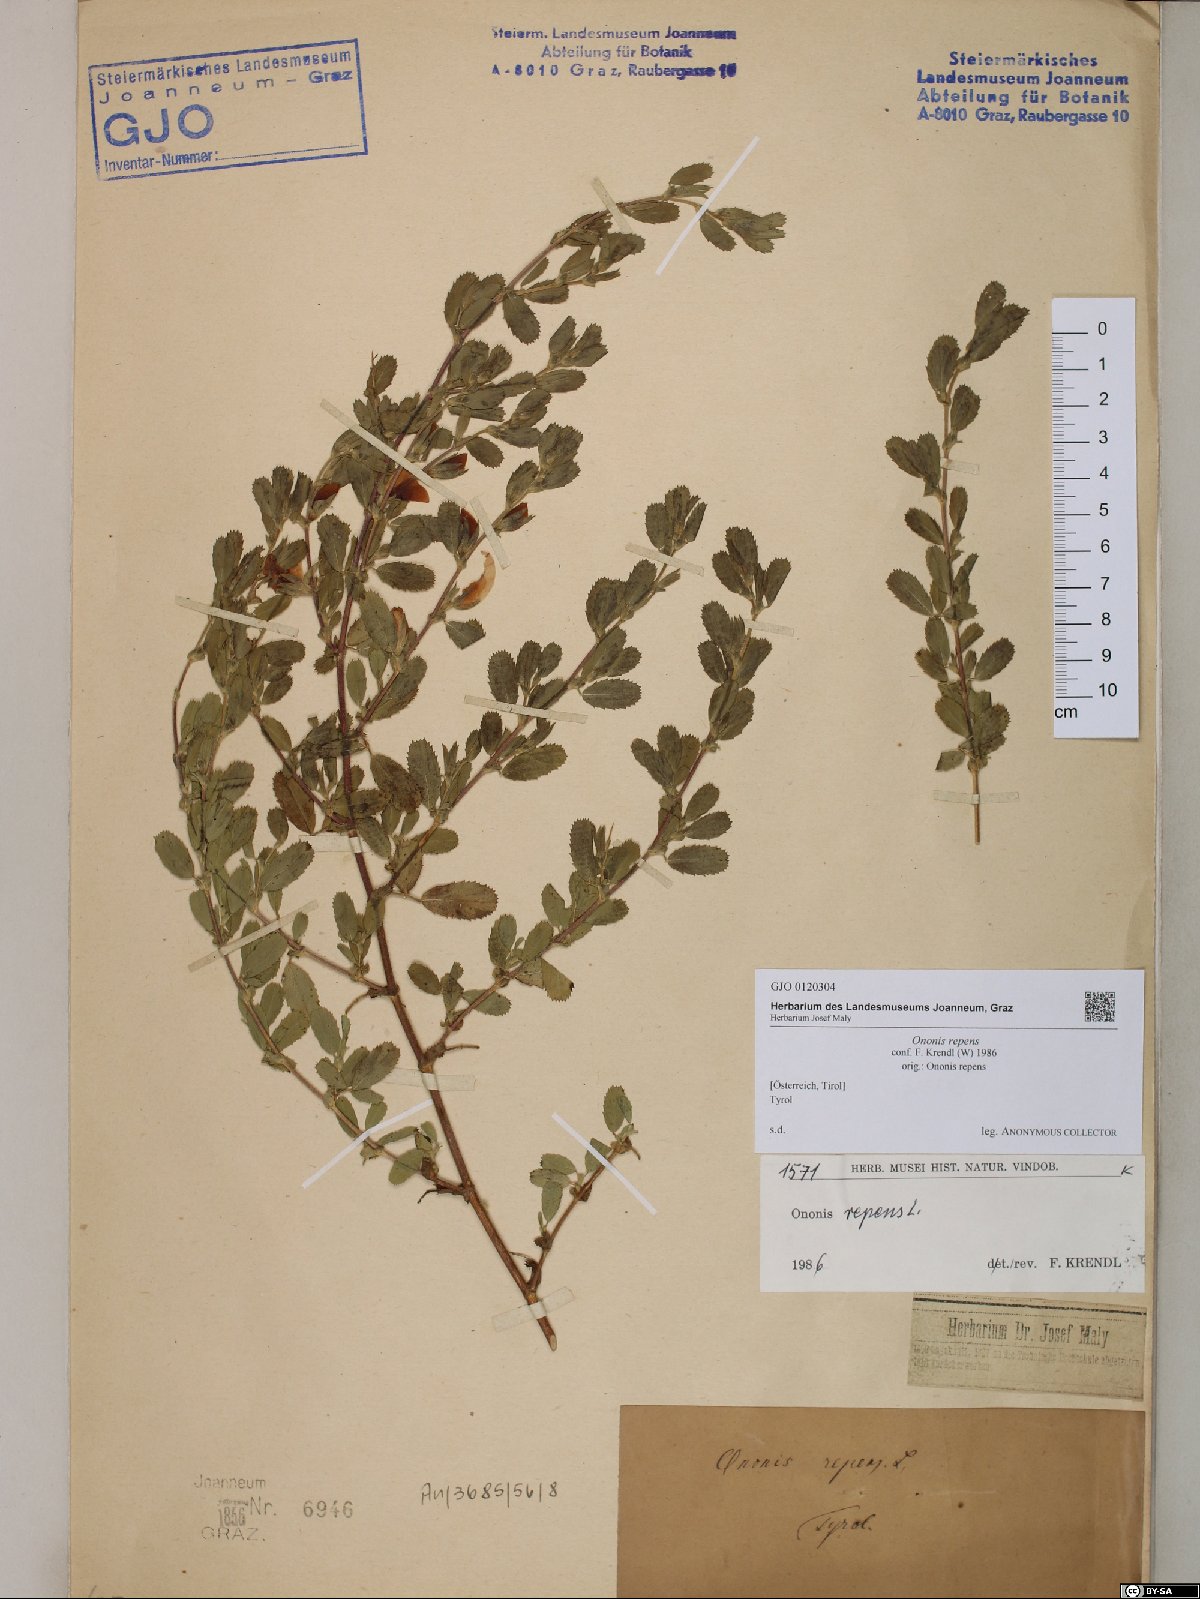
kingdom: Plantae
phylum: Tracheophyta
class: Magnoliopsida
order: Fabales
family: Fabaceae
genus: Ononis
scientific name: Ononis spinosa
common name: Spiny restharrow
